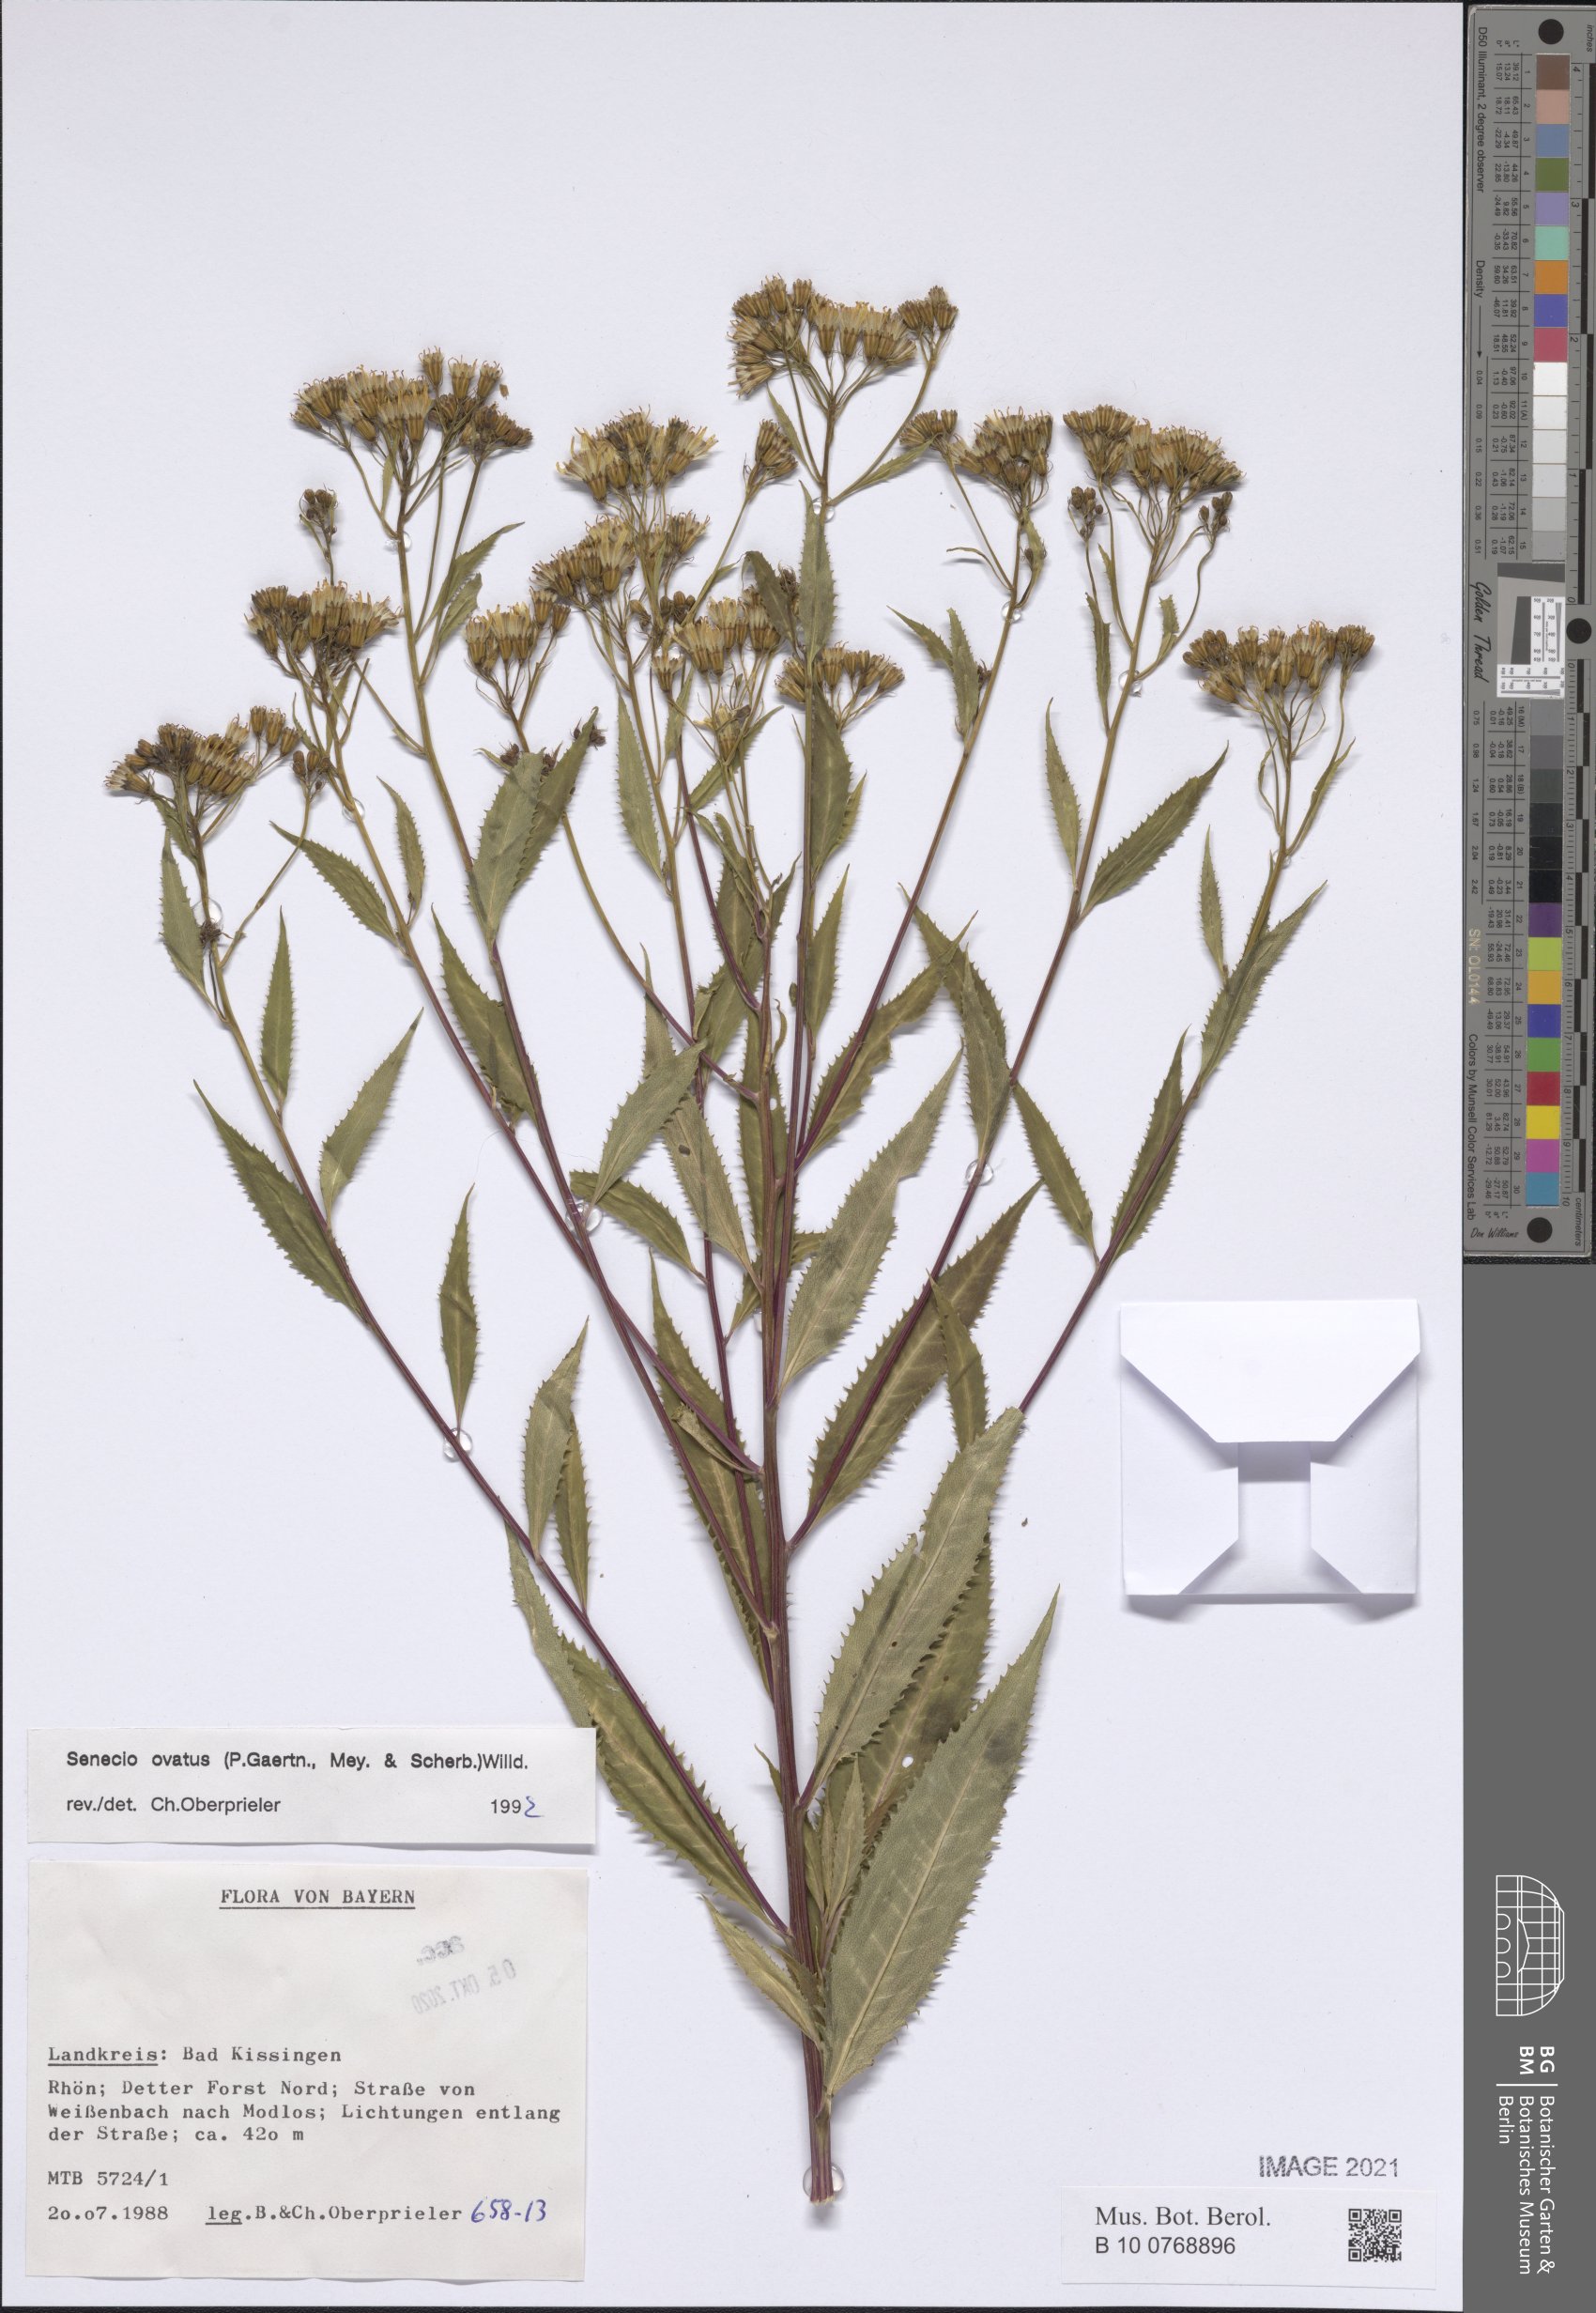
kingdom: Plantae
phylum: Tracheophyta
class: Magnoliopsida
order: Asterales
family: Asteraceae
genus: Senecio
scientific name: Senecio ovatus
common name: Wood ragwort
